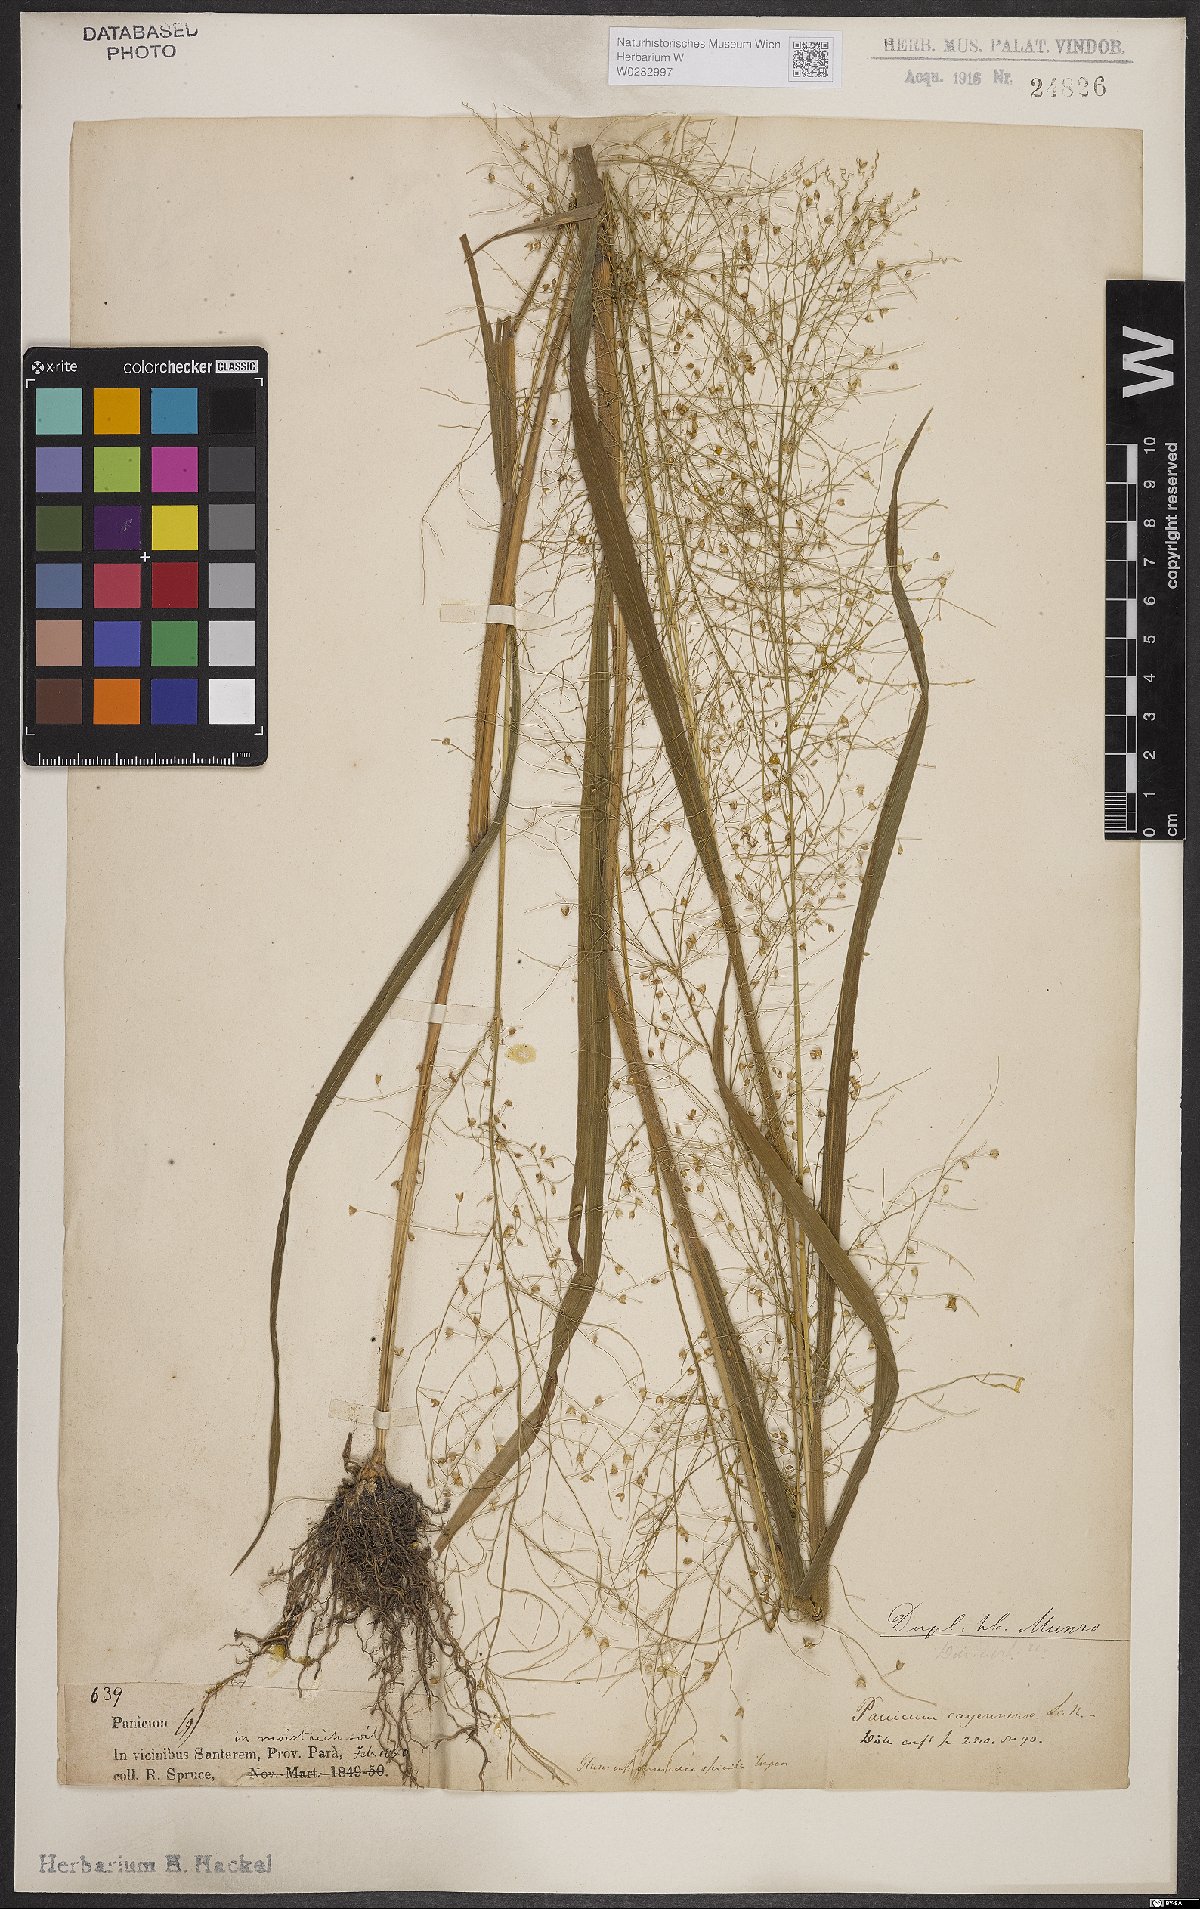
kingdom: Plantae
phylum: Tracheophyta
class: Liliopsida
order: Poales
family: Poaceae
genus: Panicum
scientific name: Panicum cayennense
